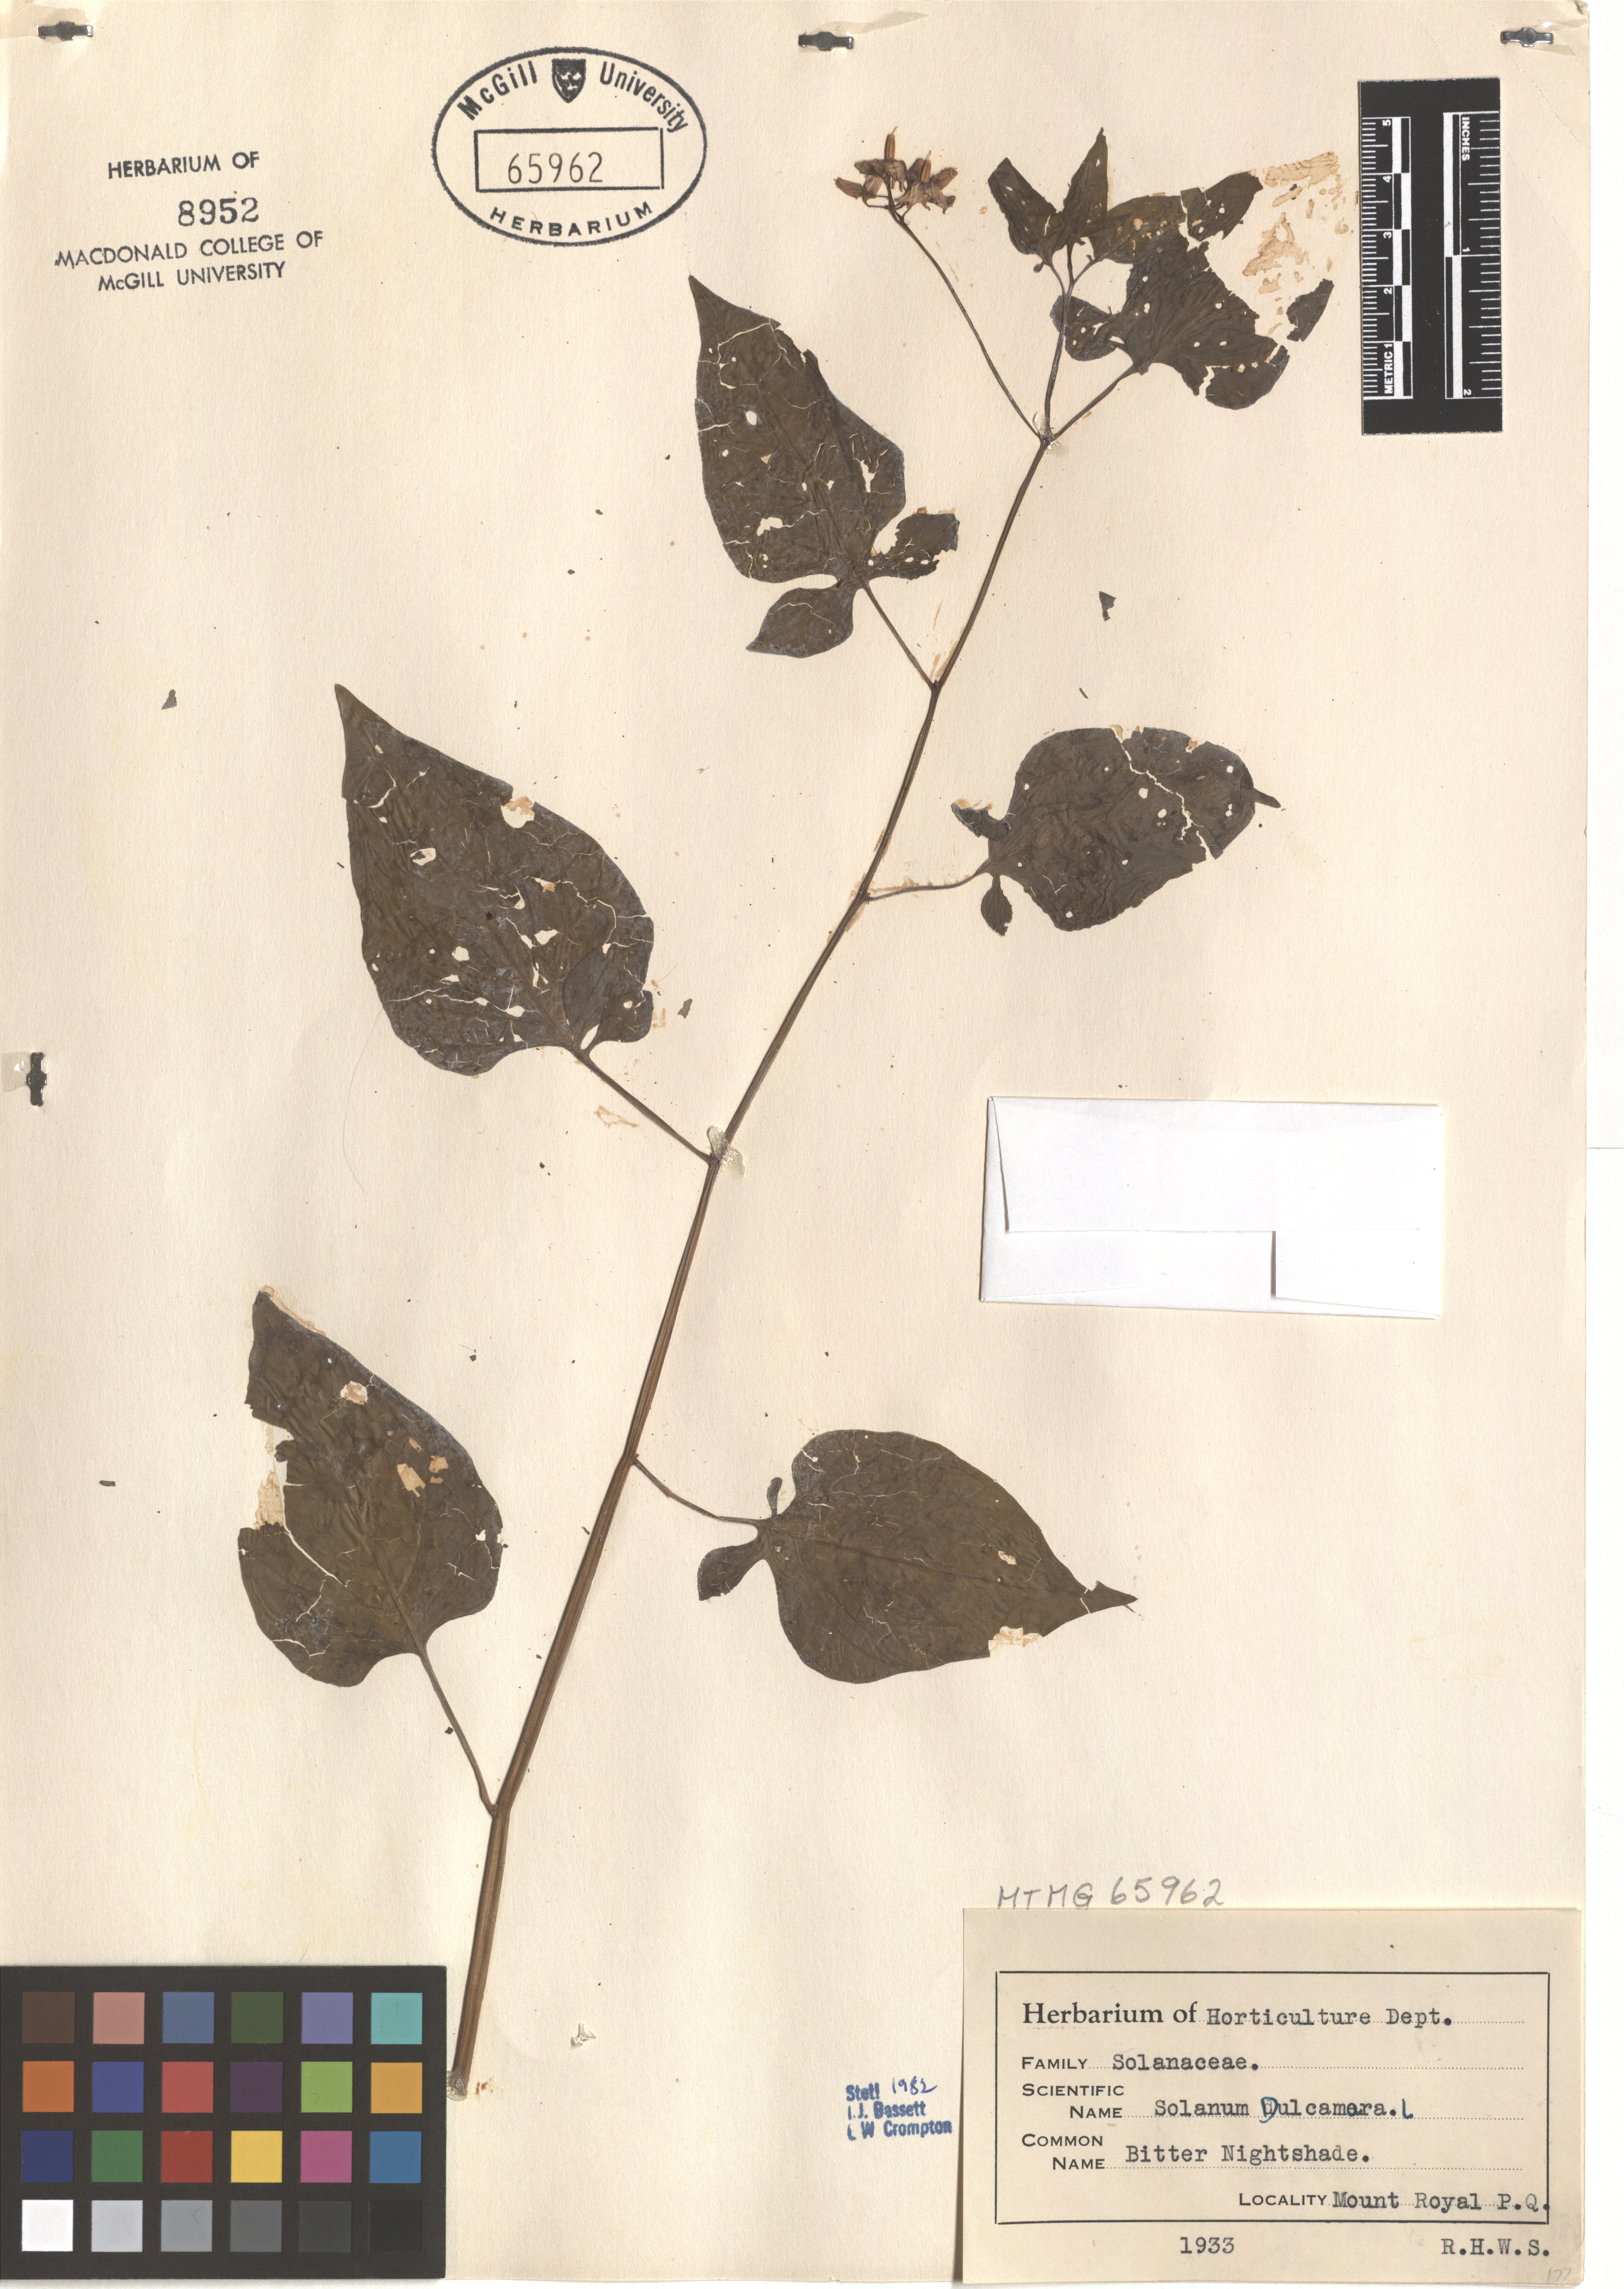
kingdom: Plantae
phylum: Tracheophyta
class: Magnoliopsida
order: Solanales
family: Solanaceae
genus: Solanum
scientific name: Solanum dulcamara
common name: Climbing nightshade
